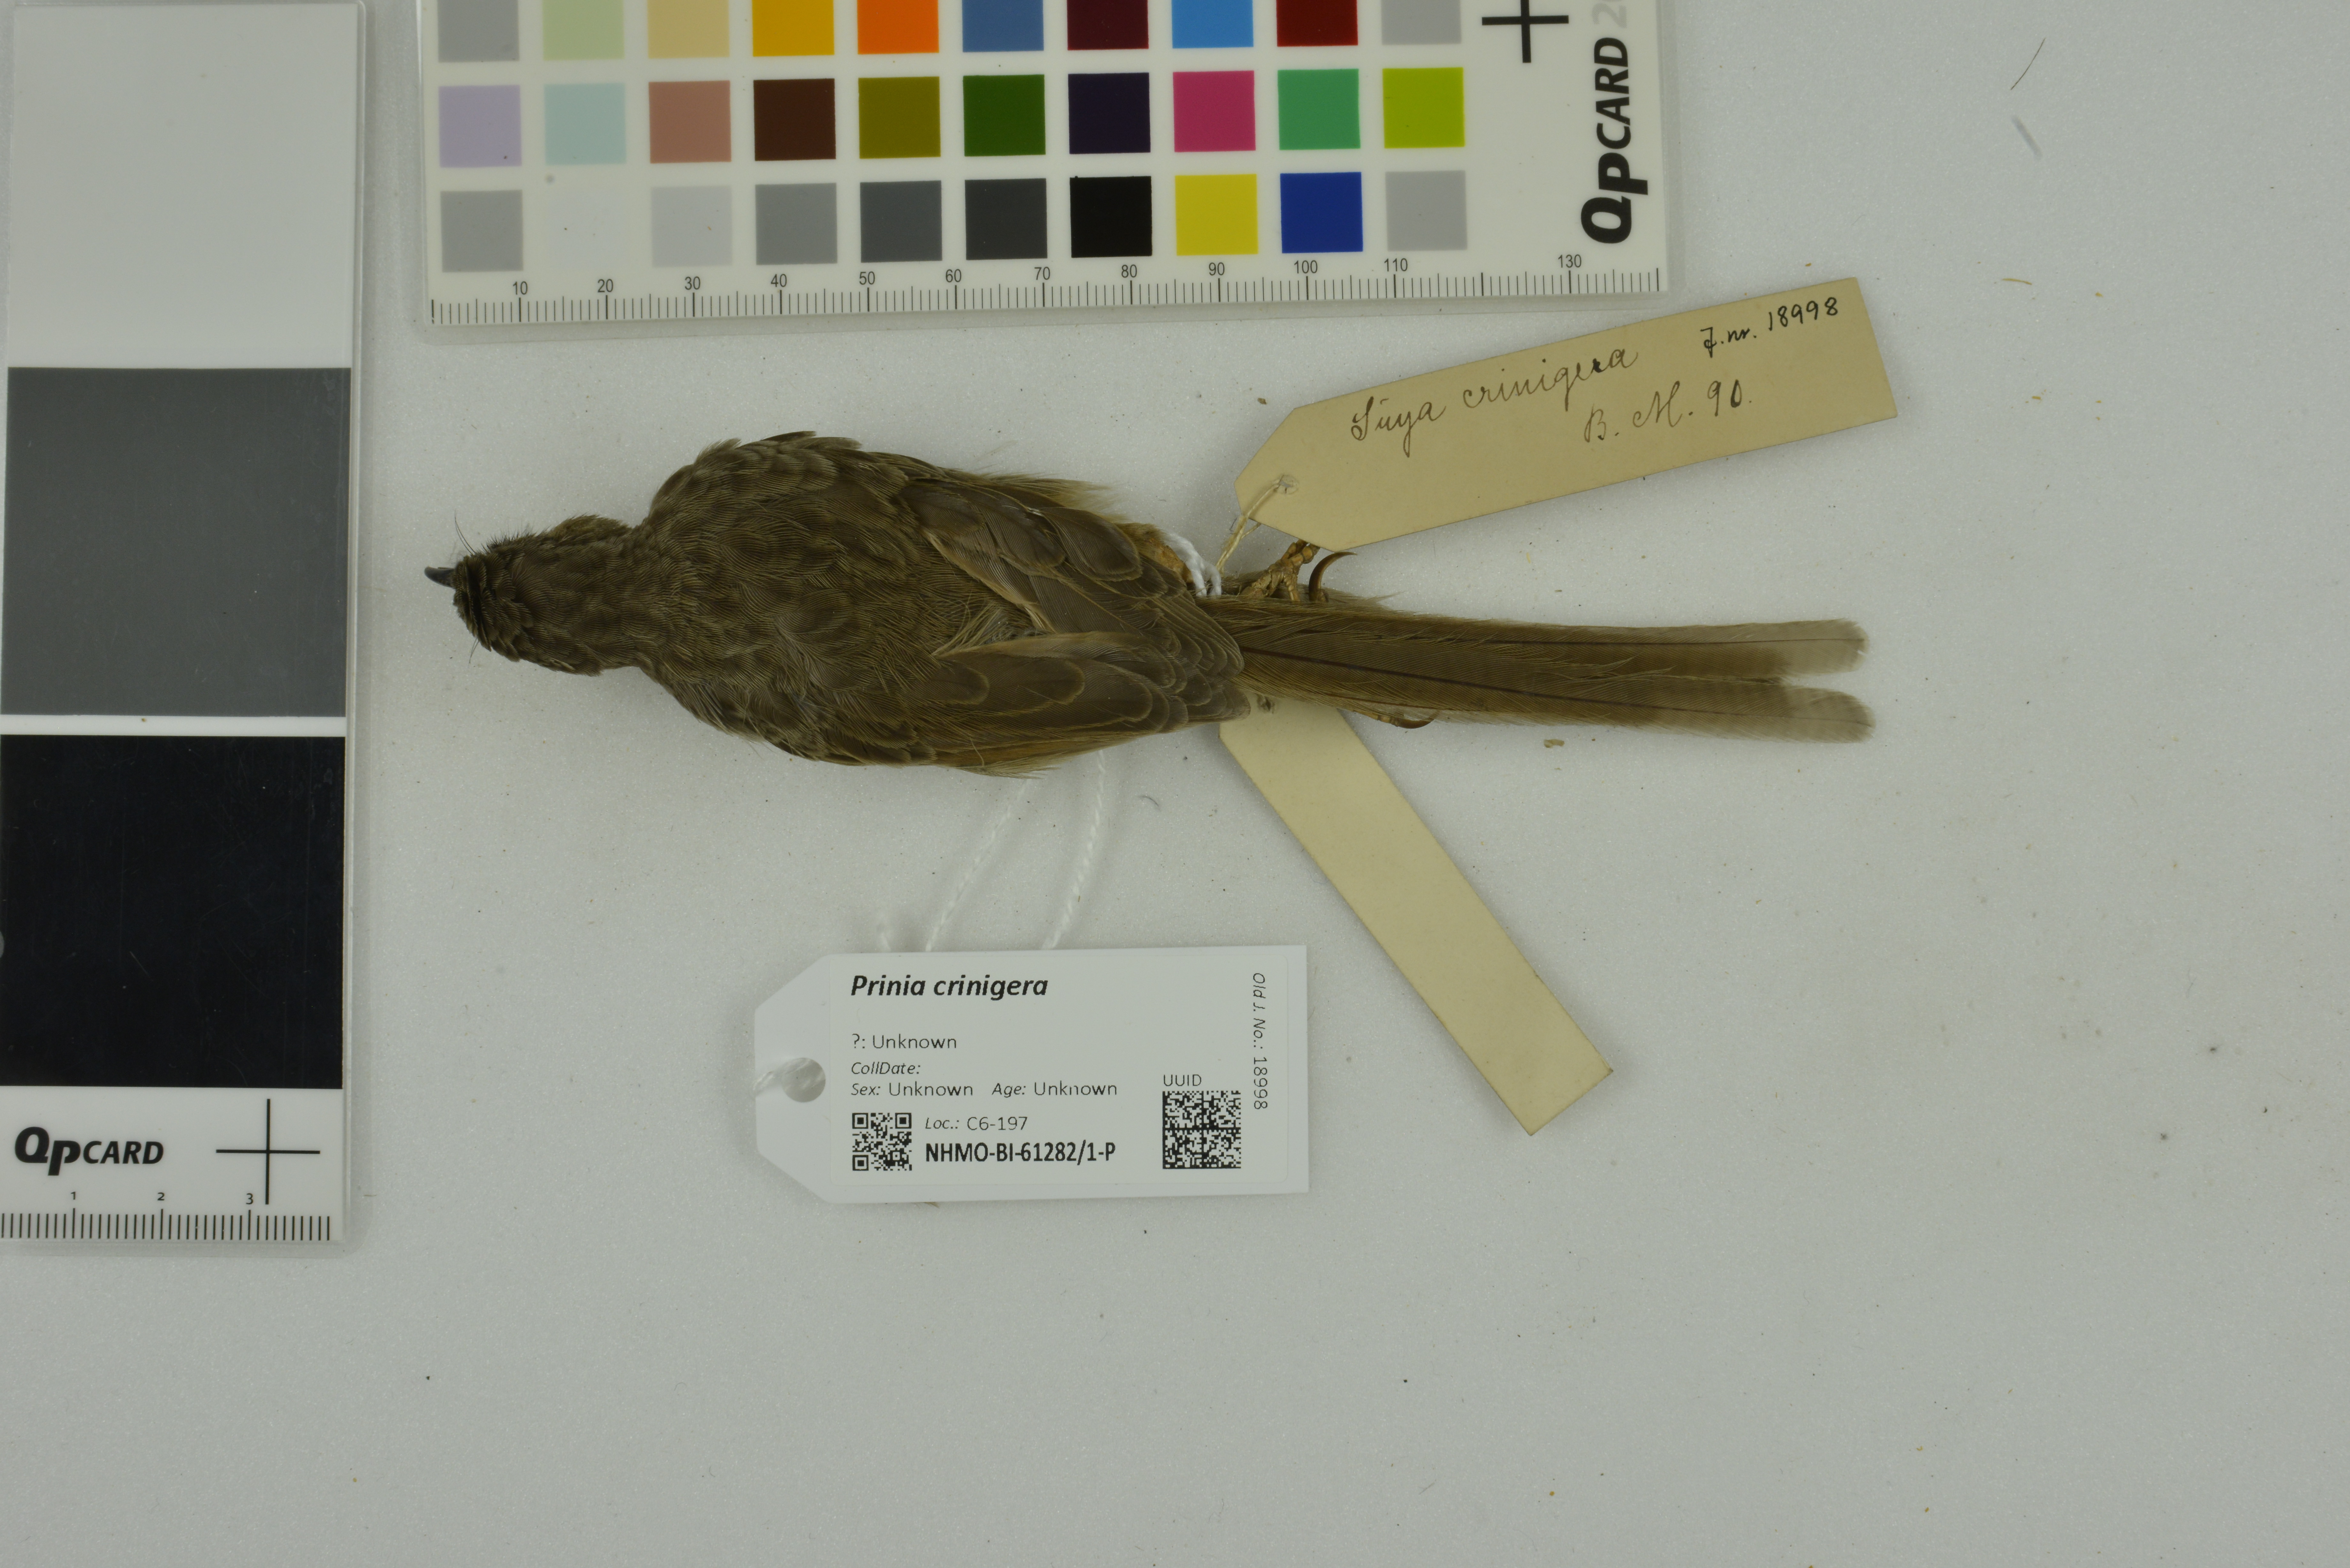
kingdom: Animalia
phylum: Chordata
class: Aves
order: Passeriformes
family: Cisticolidae
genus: Prinia
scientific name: Prinia crinigera
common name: Striated prinia
